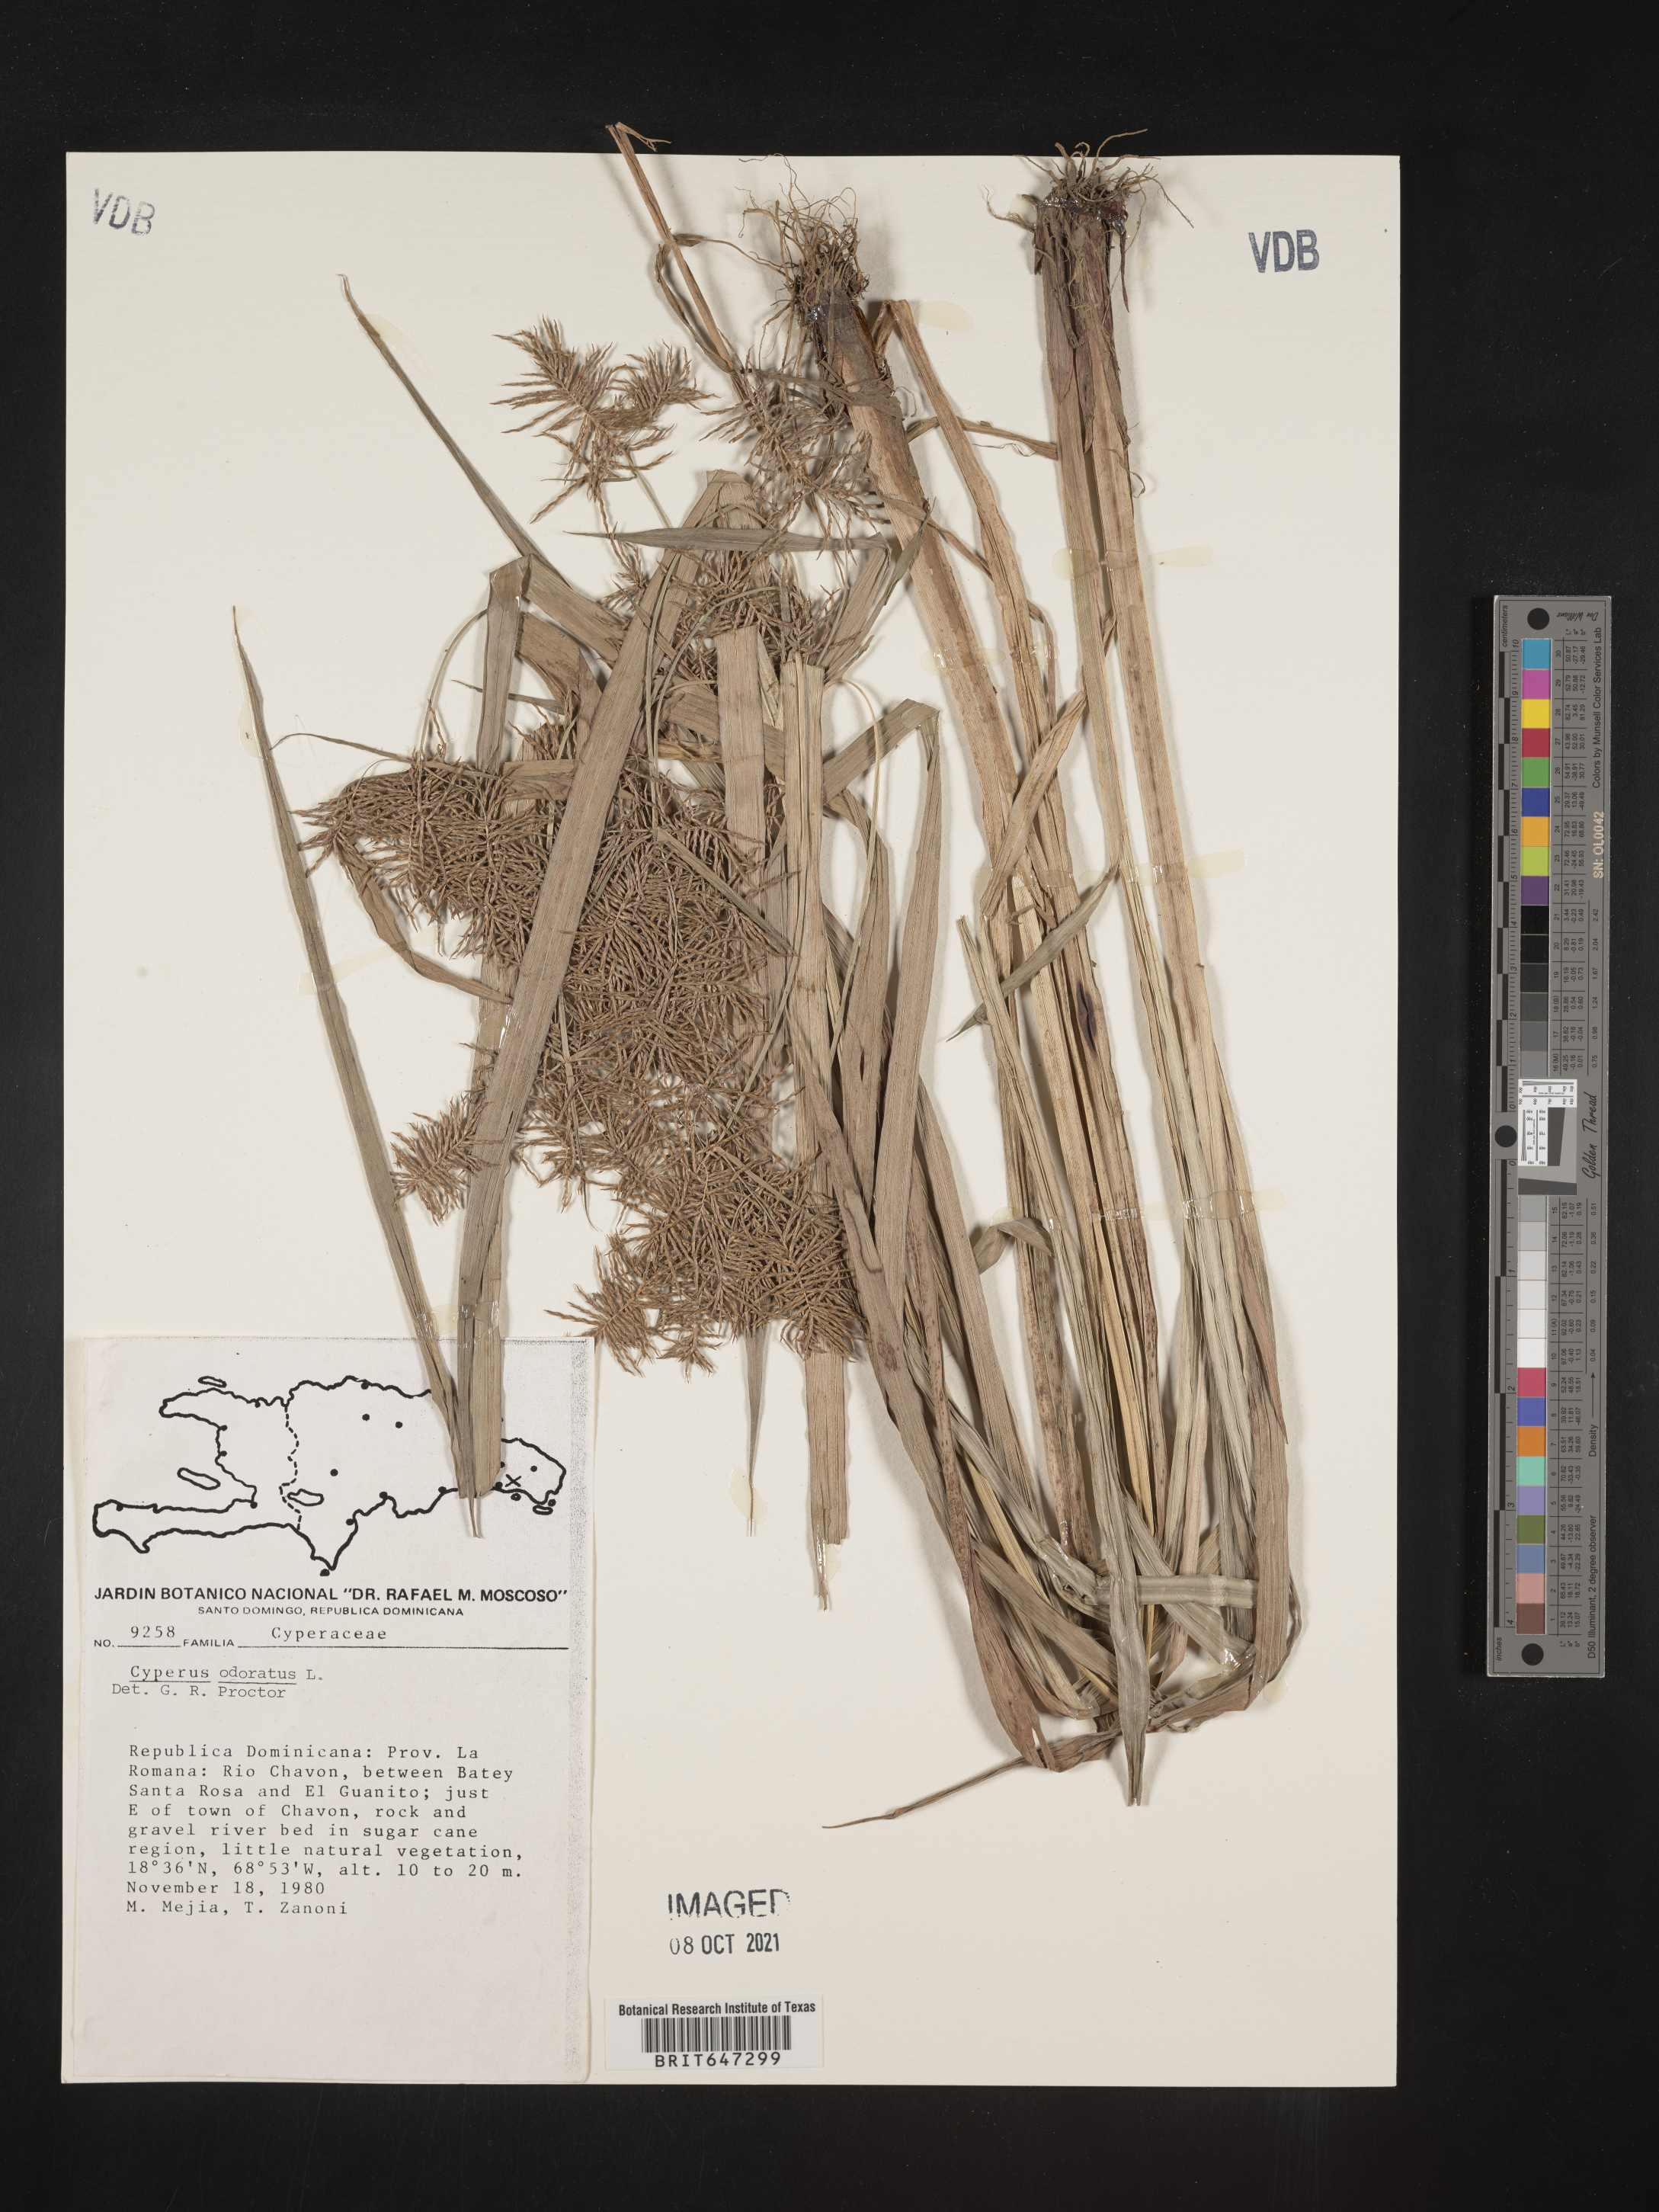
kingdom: Plantae
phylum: Tracheophyta
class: Liliopsida
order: Poales
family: Cyperaceae
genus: Cyperus
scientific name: Cyperus odoratus
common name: Fragrant flatsedge
